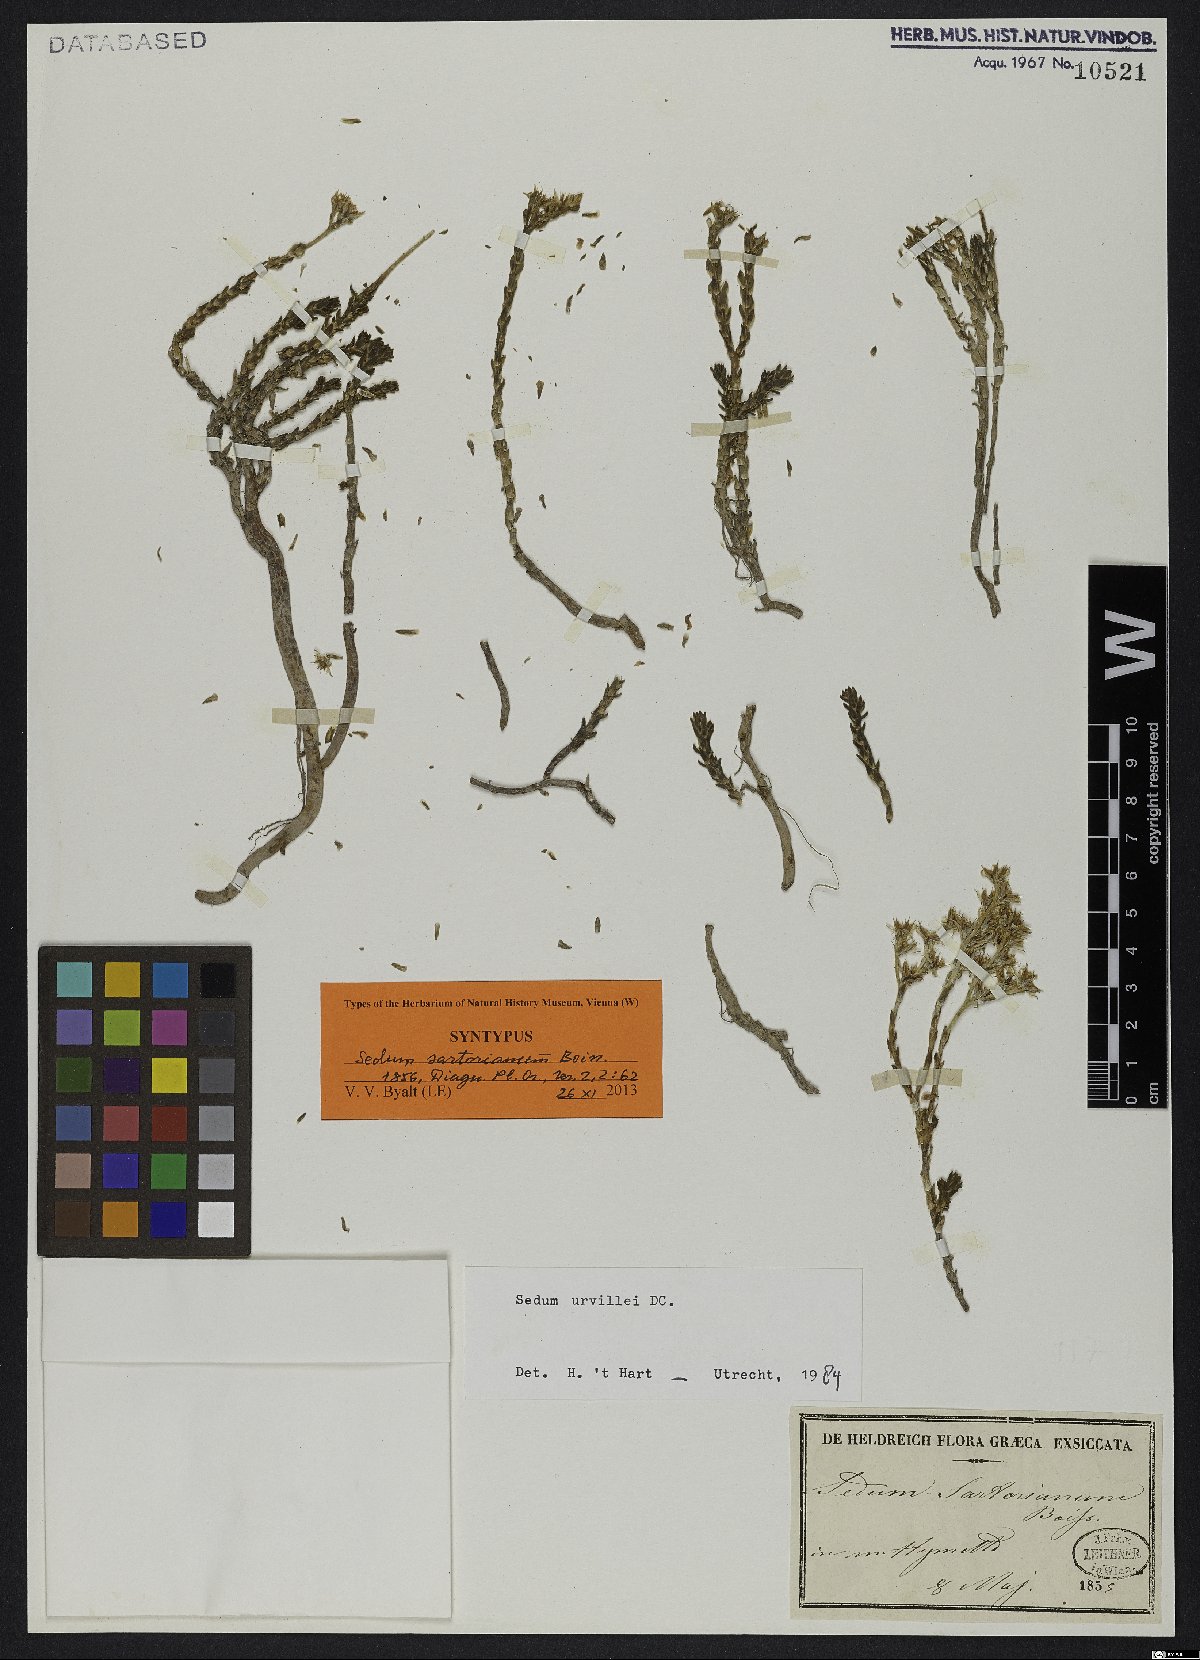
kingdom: Plantae
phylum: Tracheophyta
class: Magnoliopsida
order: Saxifragales
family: Crassulaceae
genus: Sedum
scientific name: Sedum urvillei
